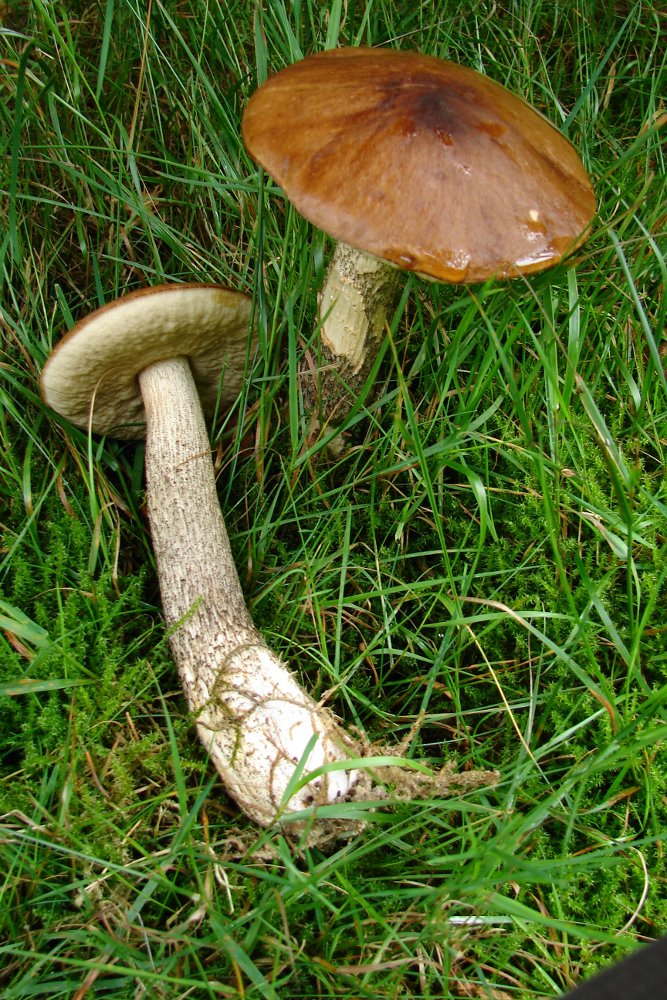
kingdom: Fungi
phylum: Basidiomycota
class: Agaricomycetes
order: Boletales
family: Boletaceae
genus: Leccinum
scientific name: Leccinum scabrum
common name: brun skælrørhat
